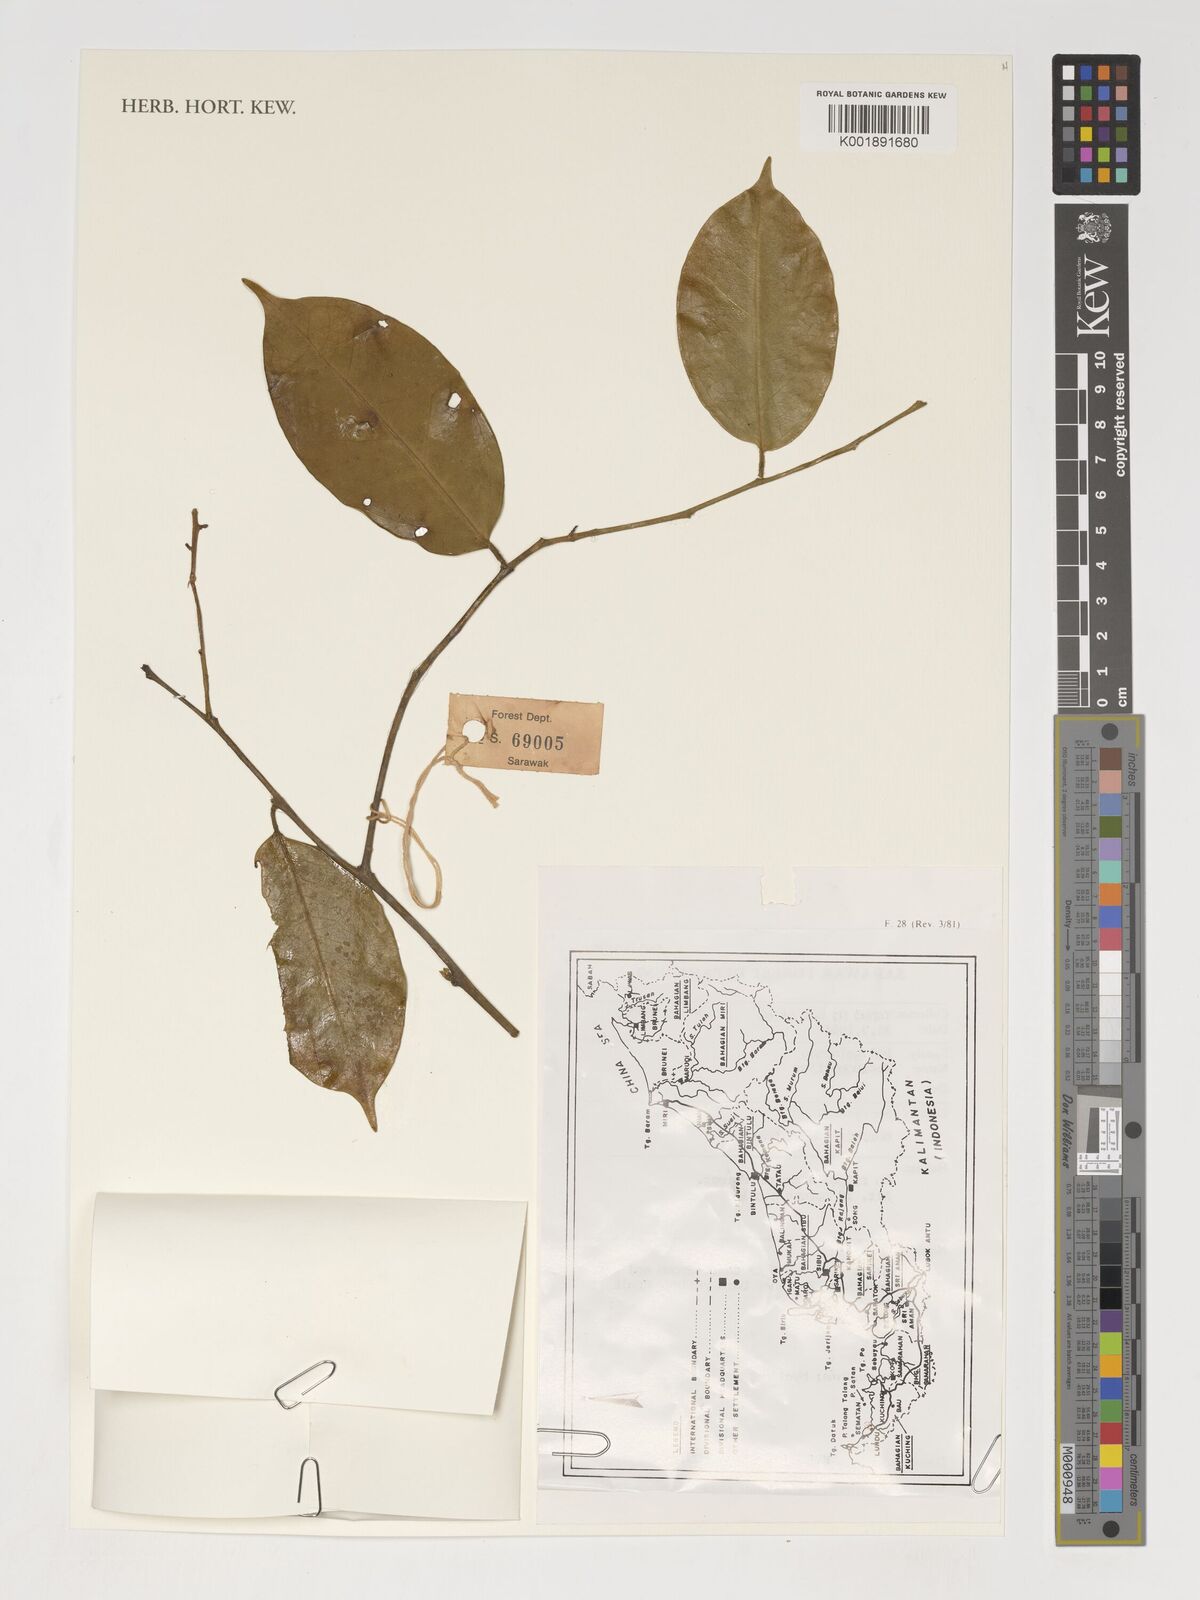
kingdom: Plantae
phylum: Tracheophyta
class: Magnoliopsida
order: Fabales
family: Polygalaceae
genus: Xanthophyllum
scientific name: Xanthophyllum
